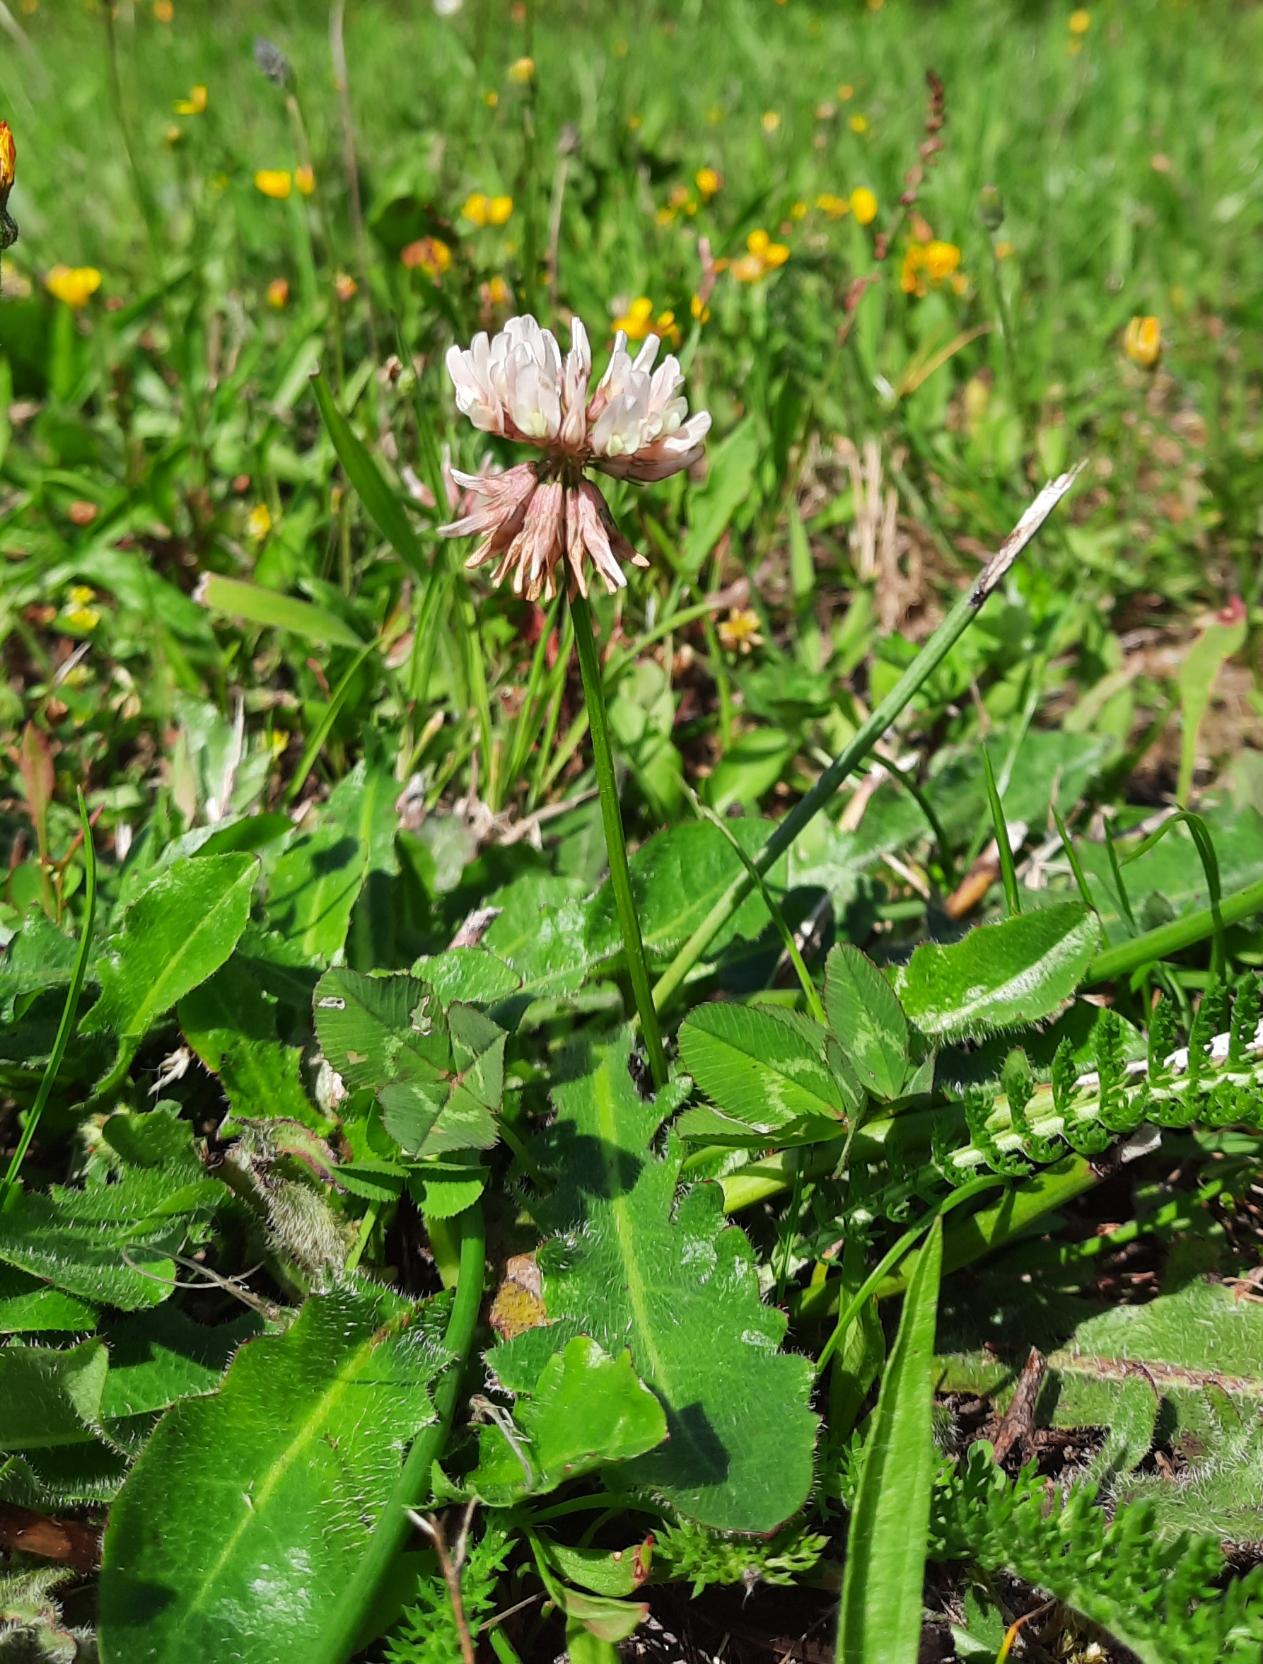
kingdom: Plantae
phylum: Tracheophyta
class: Magnoliopsida
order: Fabales
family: Fabaceae
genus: Trifolium
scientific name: Trifolium repens
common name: Hvid-kløver
